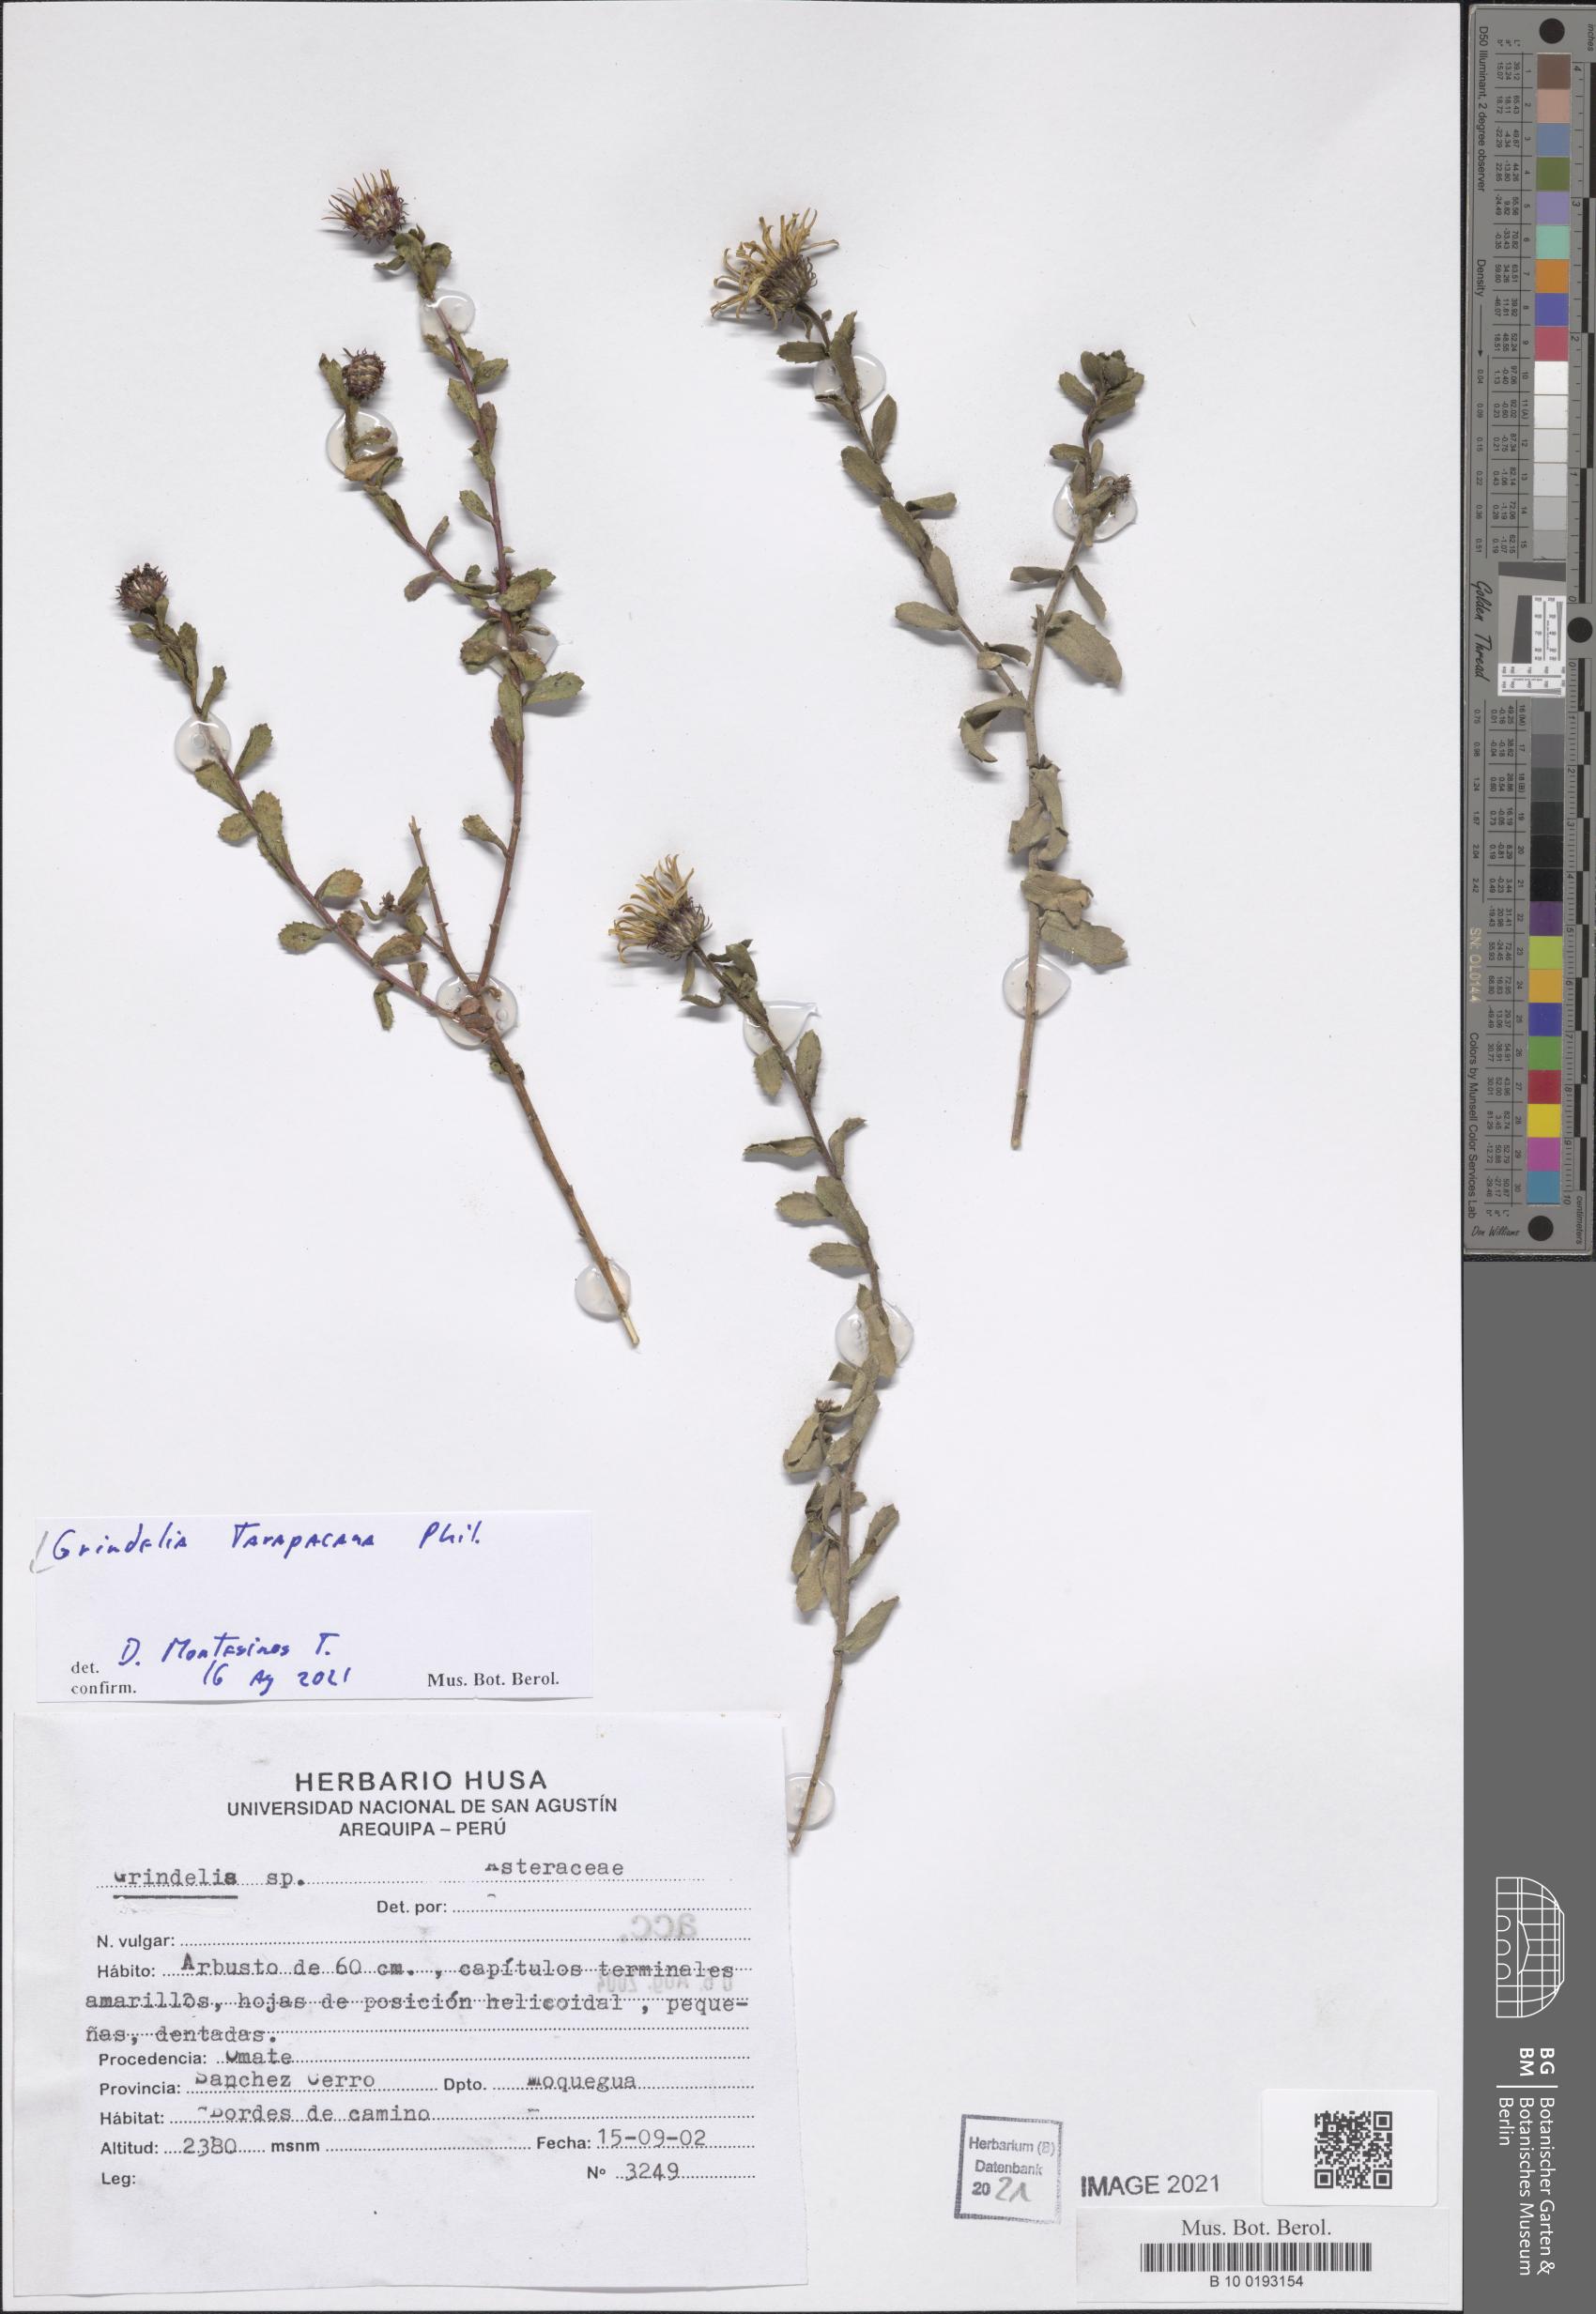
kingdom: Plantae
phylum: Tracheophyta
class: Magnoliopsida
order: Asterales
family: Asteraceae
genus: Grindelia
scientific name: Grindelia tarapacana
